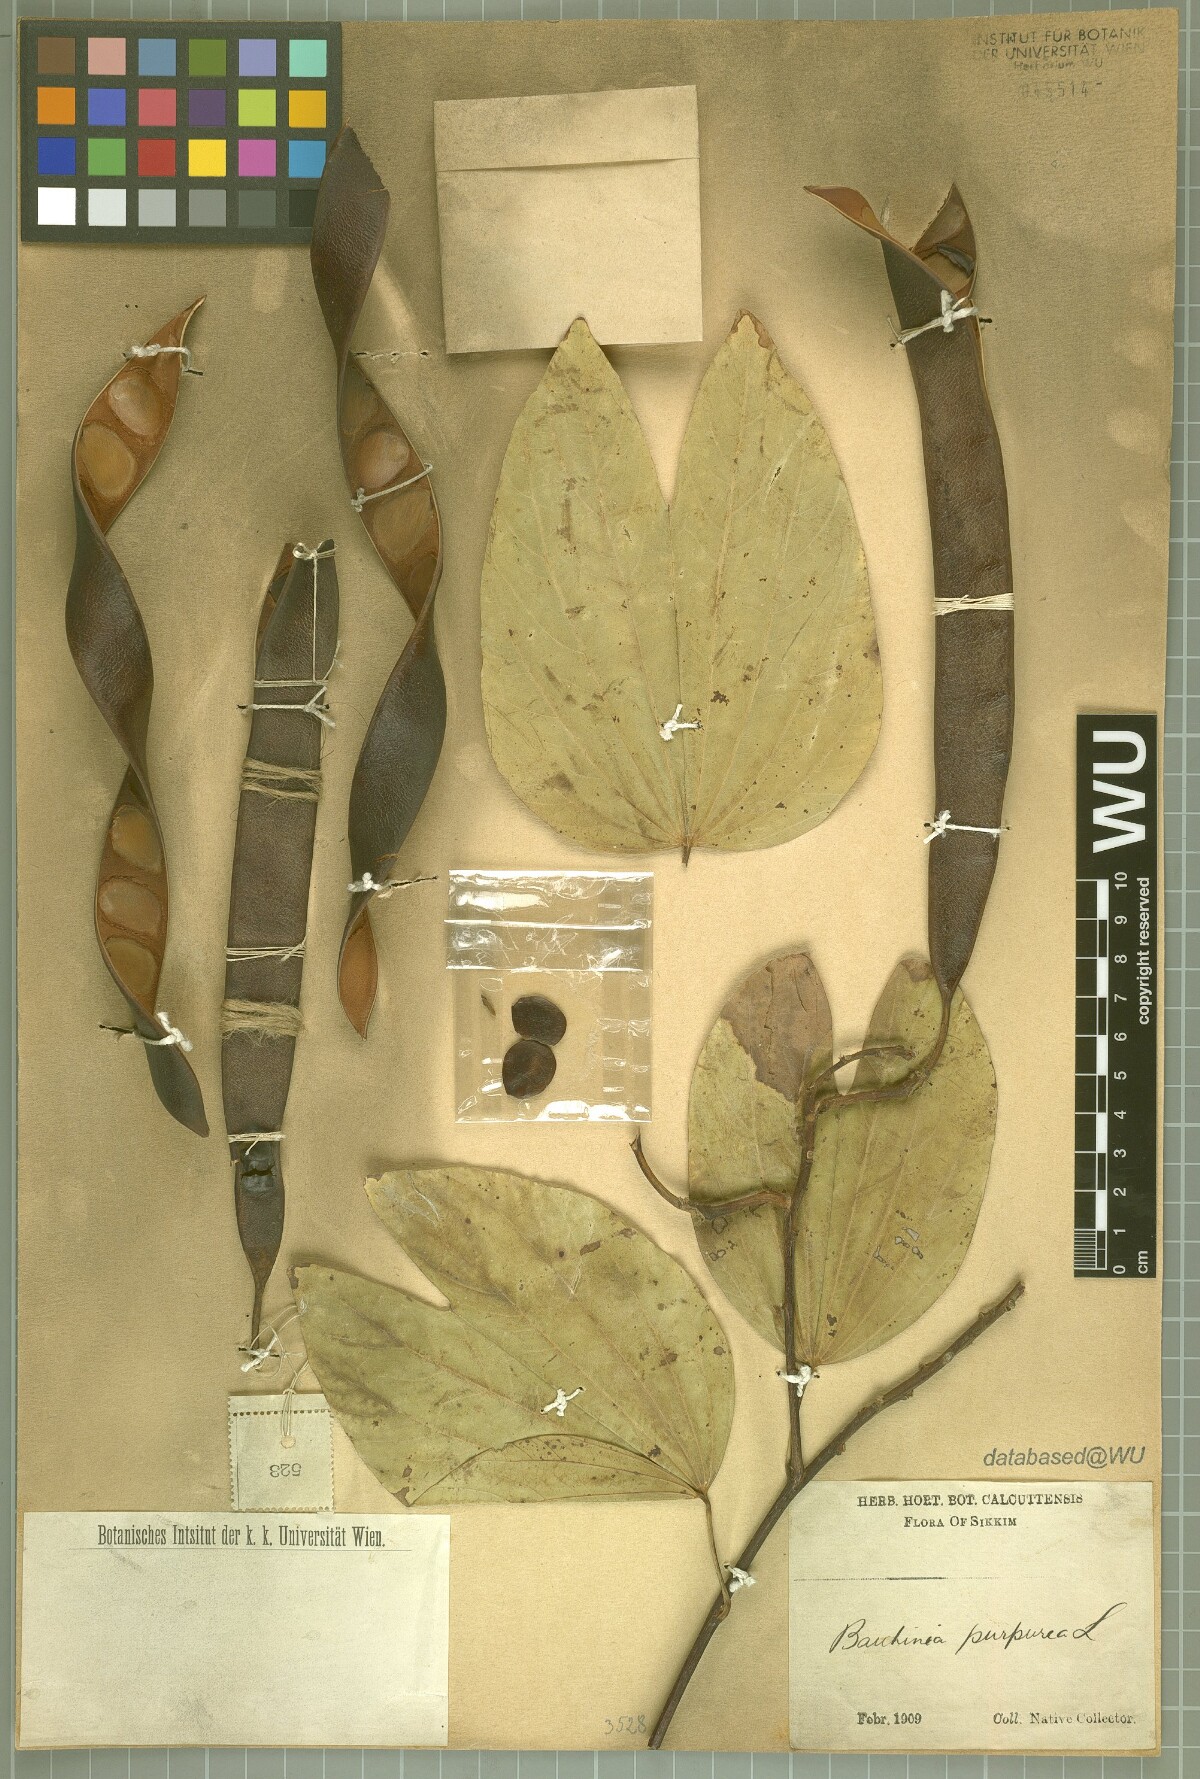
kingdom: Plantae
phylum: Tracheophyta
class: Magnoliopsida
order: Fabales
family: Fabaceae
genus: Bauhinia
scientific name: Bauhinia purpurea
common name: Butterfly-tree
